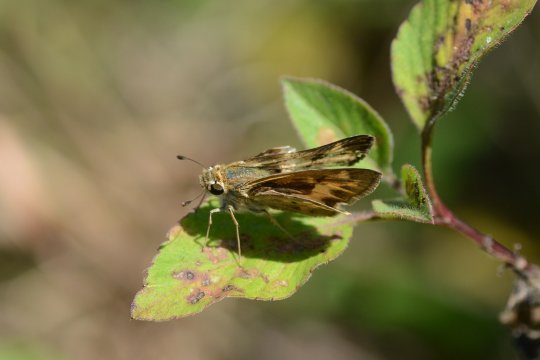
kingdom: Animalia
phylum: Arthropoda
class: Insecta
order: Lepidoptera
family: Hesperiidae
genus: Hylephila
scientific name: Hylephila phyleus
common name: Fiery Skipper
